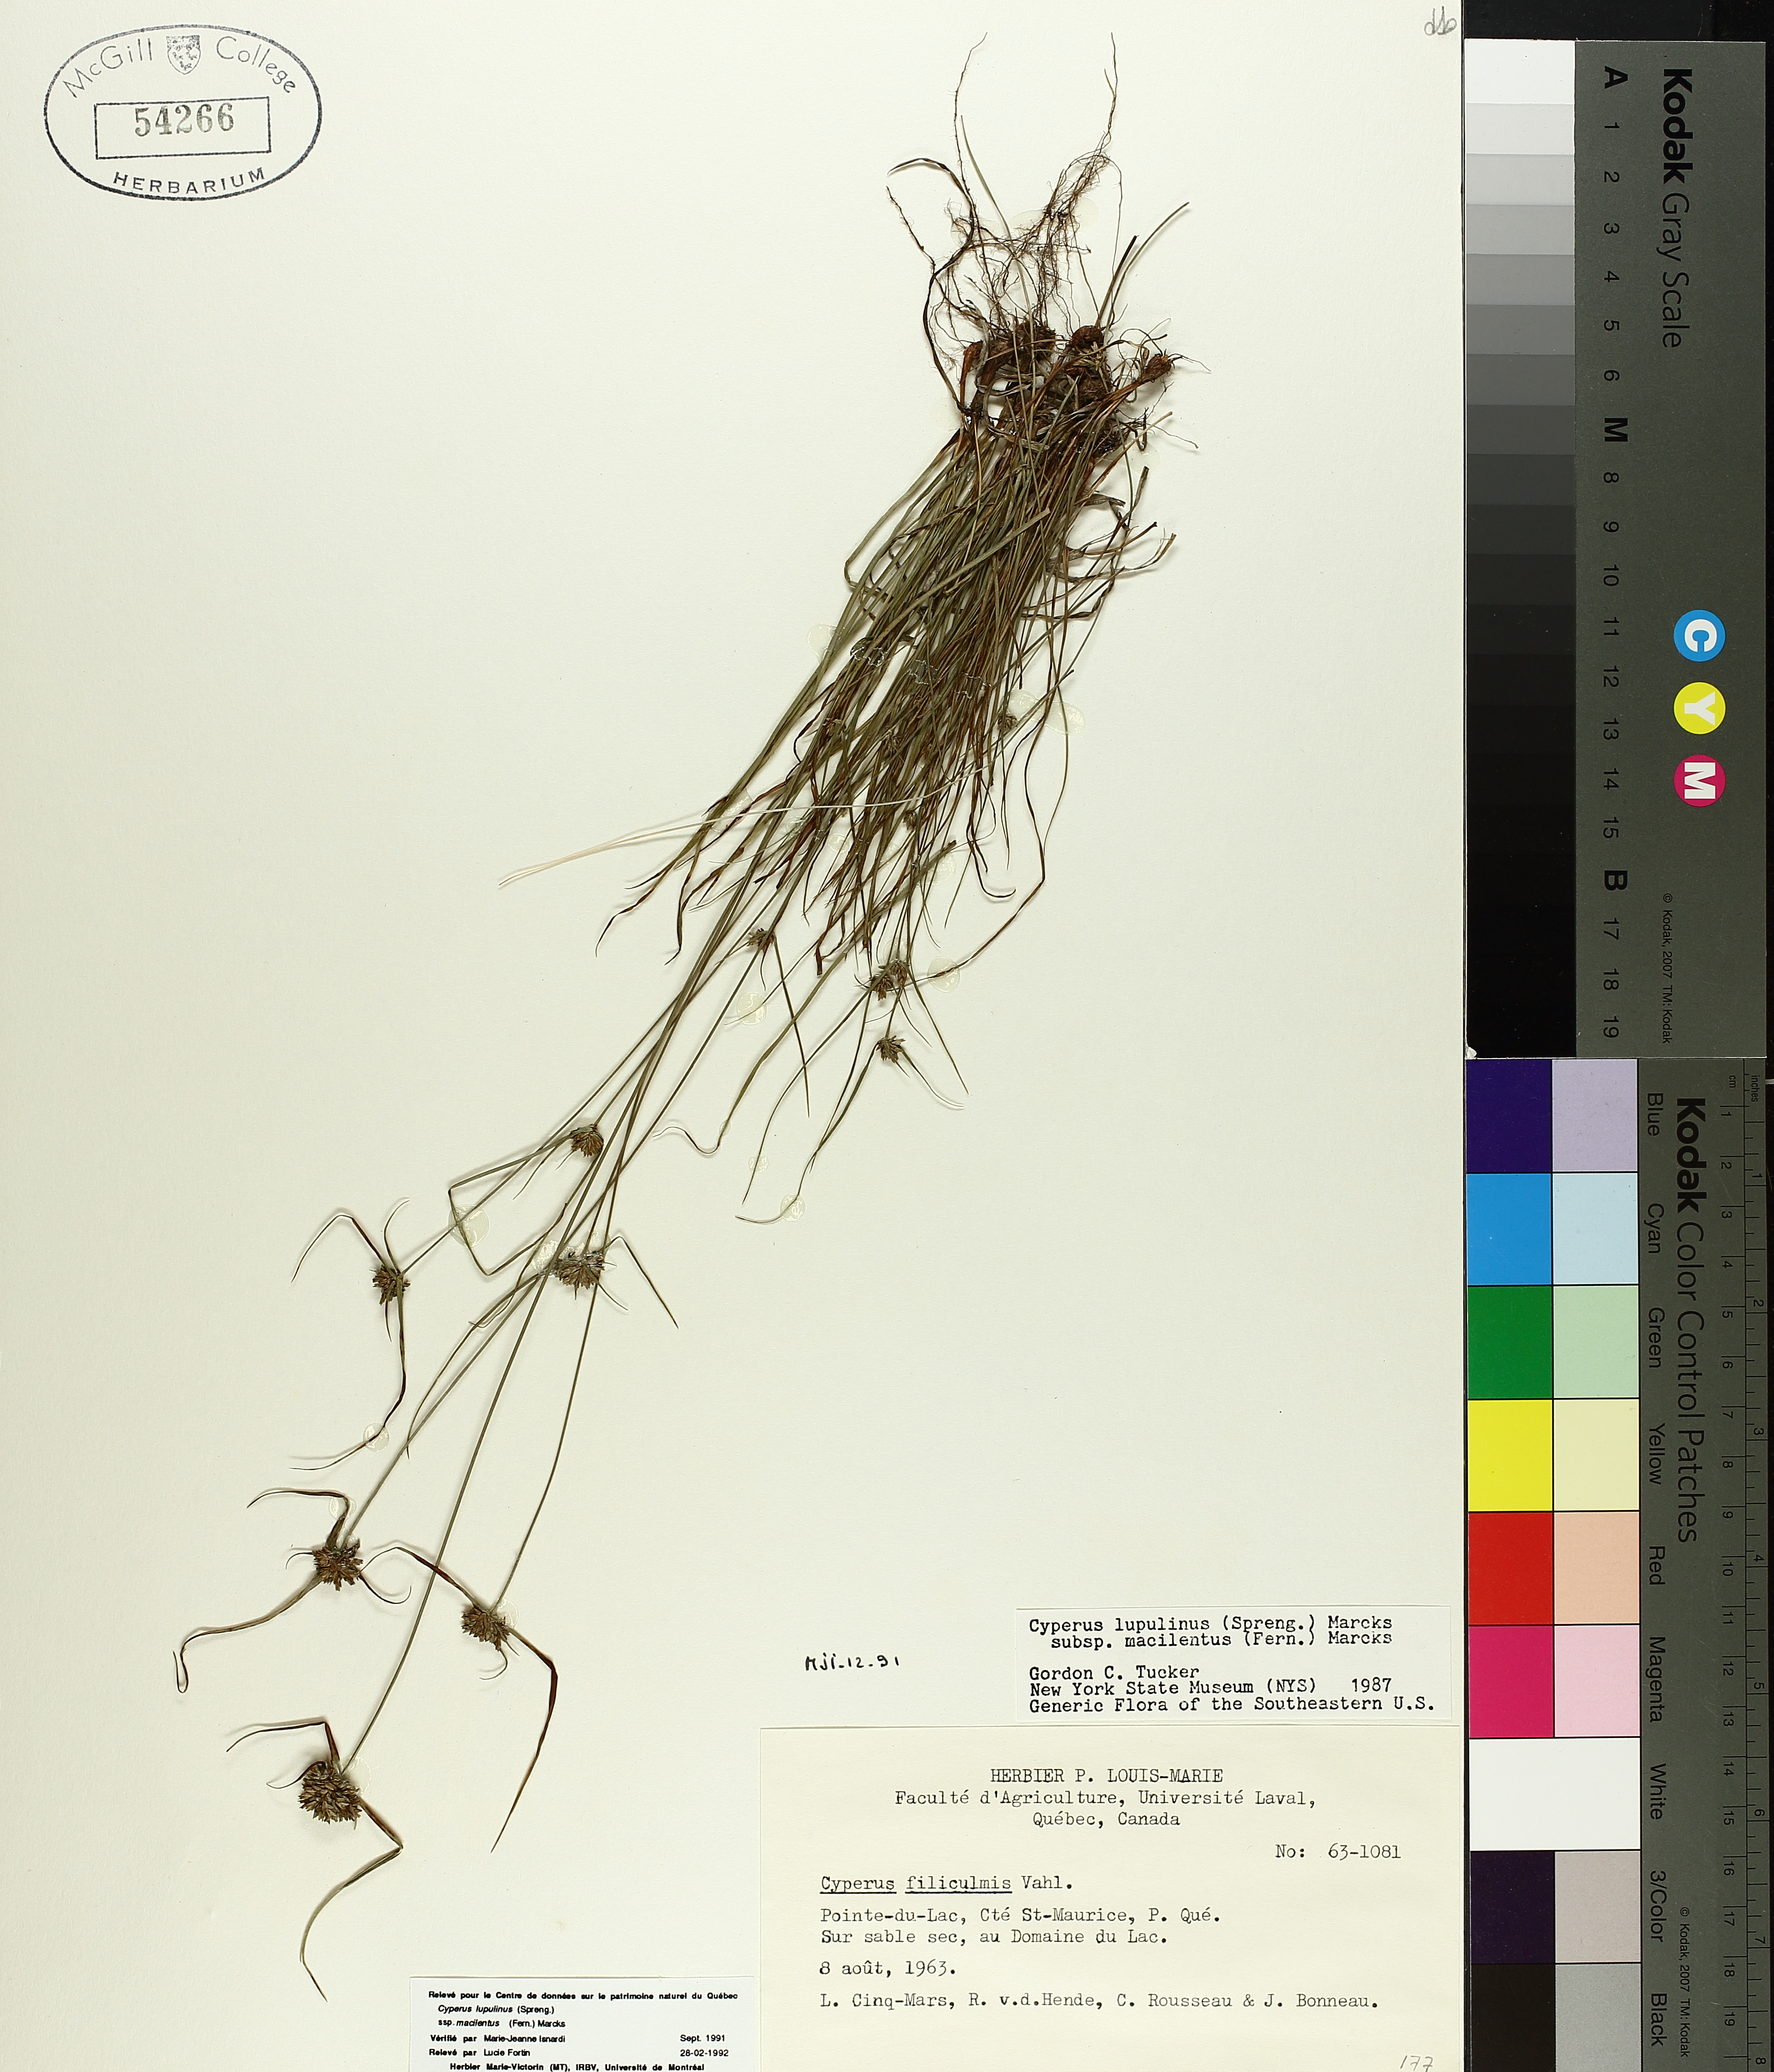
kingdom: Plantae
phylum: Tracheophyta
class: Liliopsida
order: Poales
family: Cyperaceae
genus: Cyperus
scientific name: Cyperus lupulinus
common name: Great plains flatsedge
